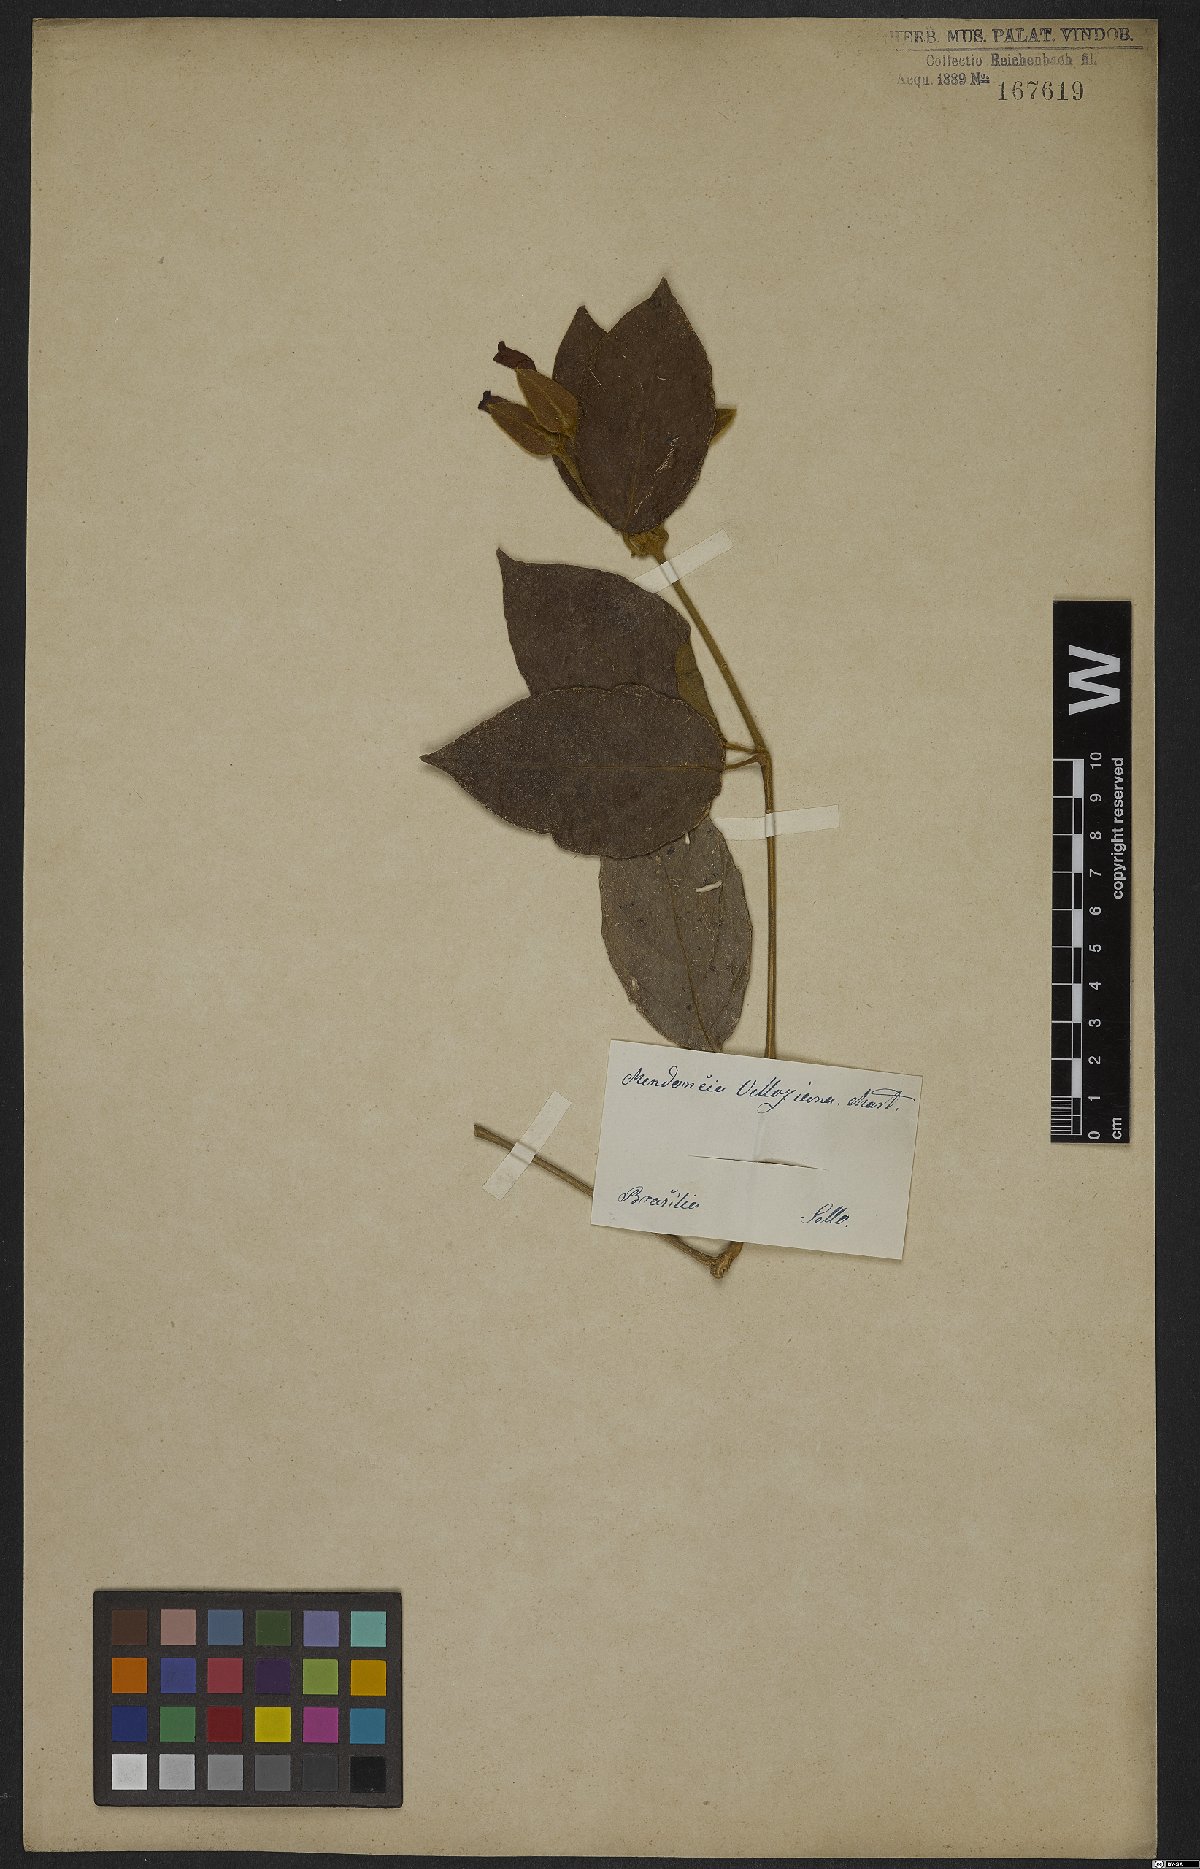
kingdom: Plantae
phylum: Tracheophyta
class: Magnoliopsida
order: Lamiales
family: Acanthaceae
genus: Mendoncia
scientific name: Mendoncia velloziana
